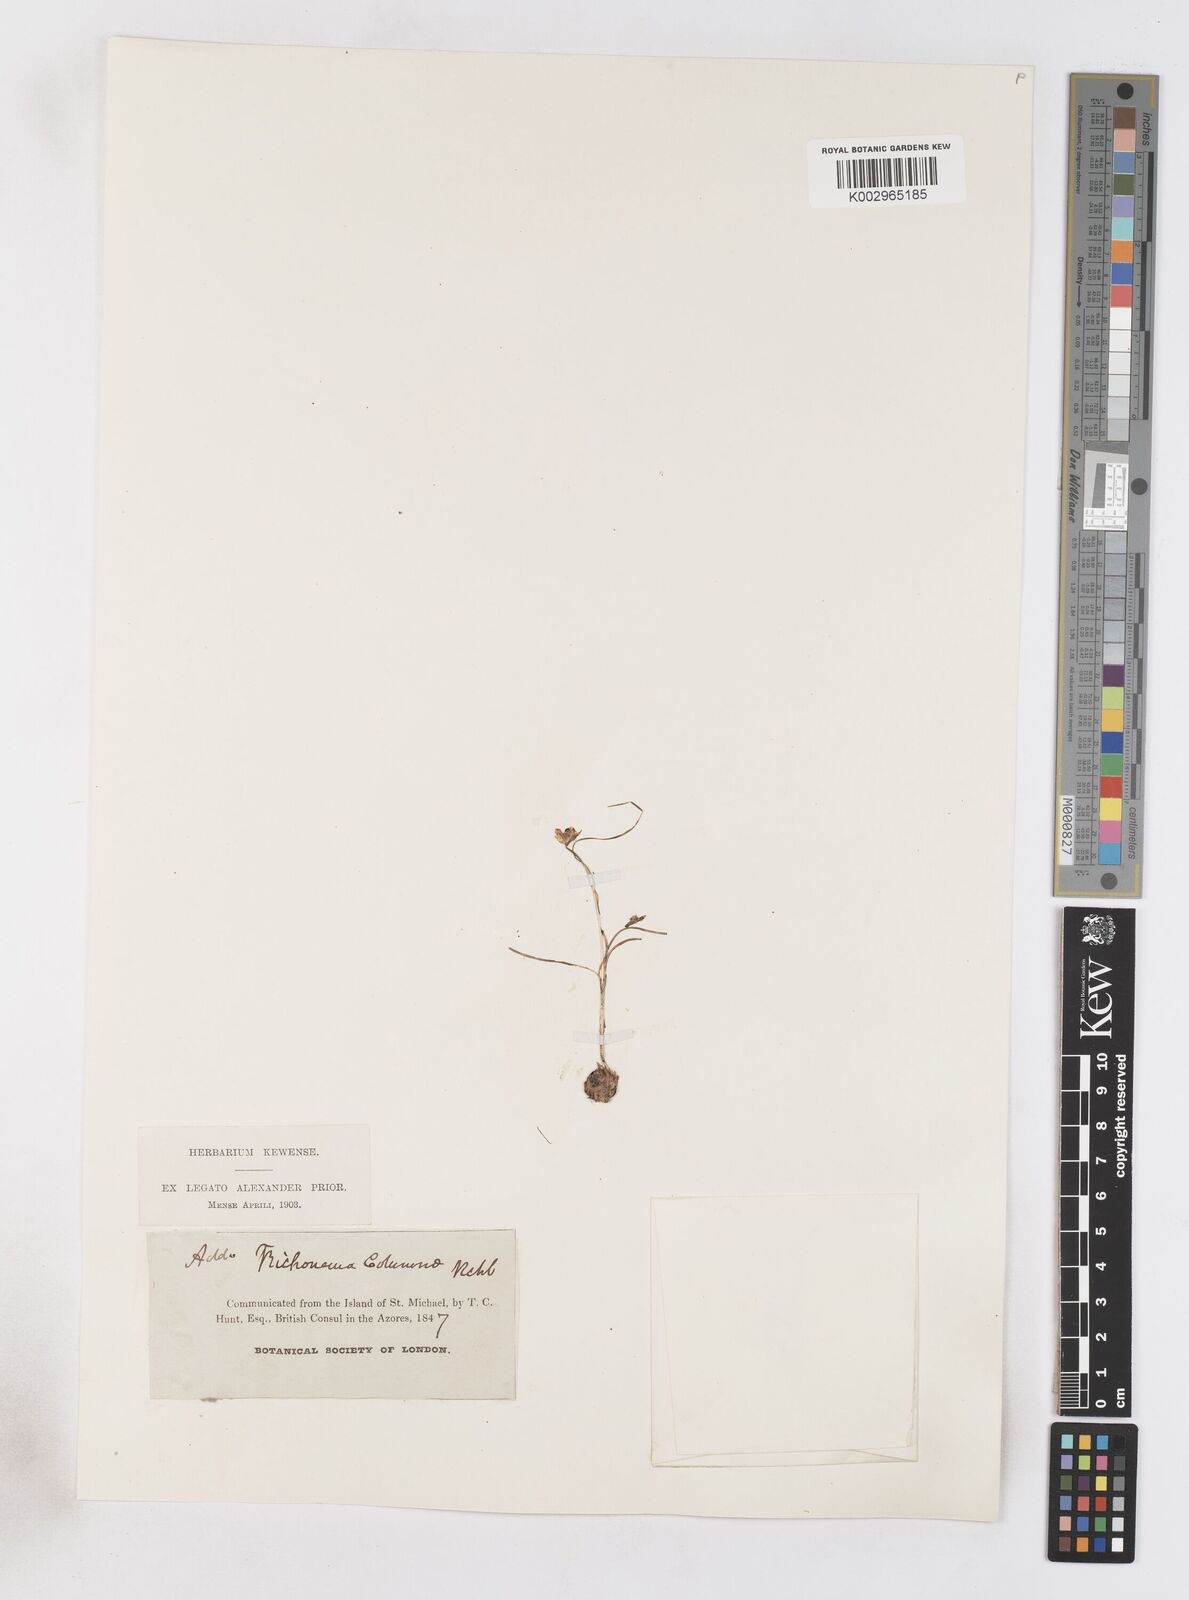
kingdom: Plantae
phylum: Tracheophyta
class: Liliopsida
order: Asparagales
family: Iridaceae
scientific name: Iridaceae
